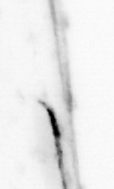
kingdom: Animalia
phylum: Chaetognatha
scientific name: Chaetognatha
